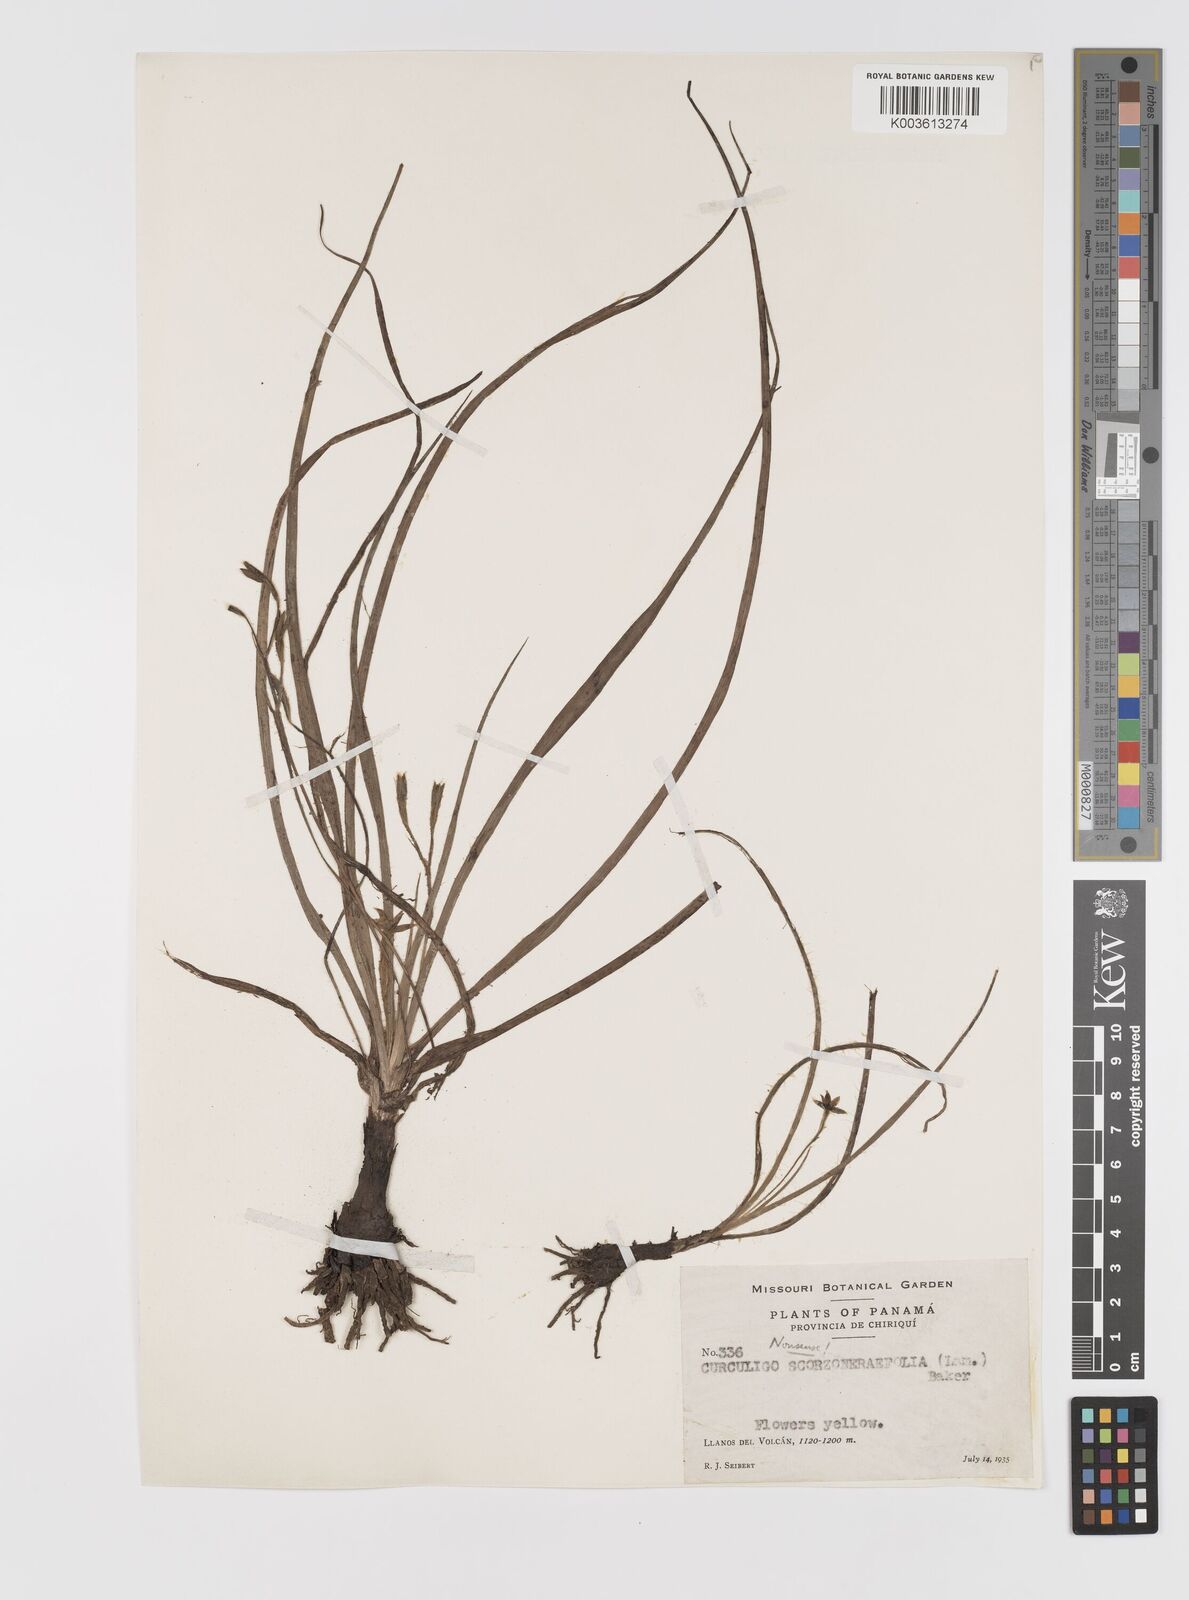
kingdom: Plantae
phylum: Tracheophyta
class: Liliopsida
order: Asparagales
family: Hypoxidaceae
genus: Hypoxis
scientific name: Hypoxis decumbens
